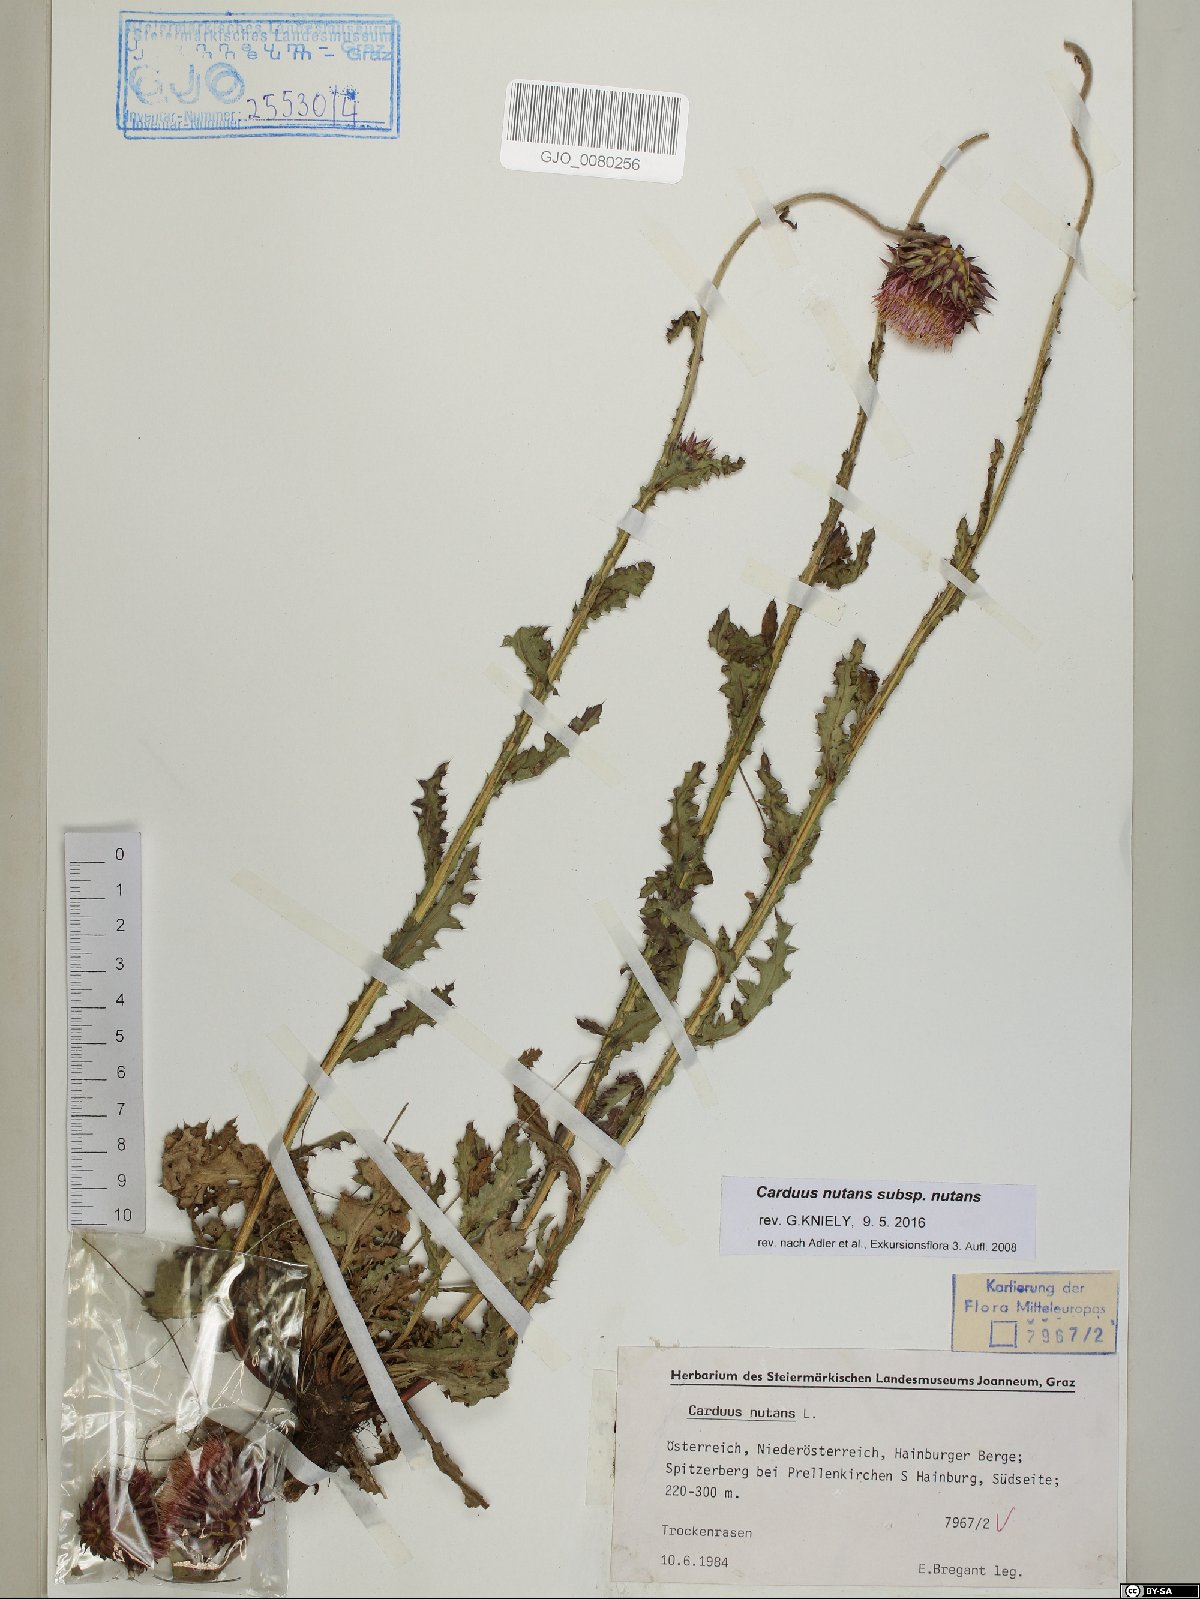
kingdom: Plantae
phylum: Tracheophyta
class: Magnoliopsida
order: Asterales
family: Asteraceae
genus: Carduus
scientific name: Carduus nutans
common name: Musk thistle
